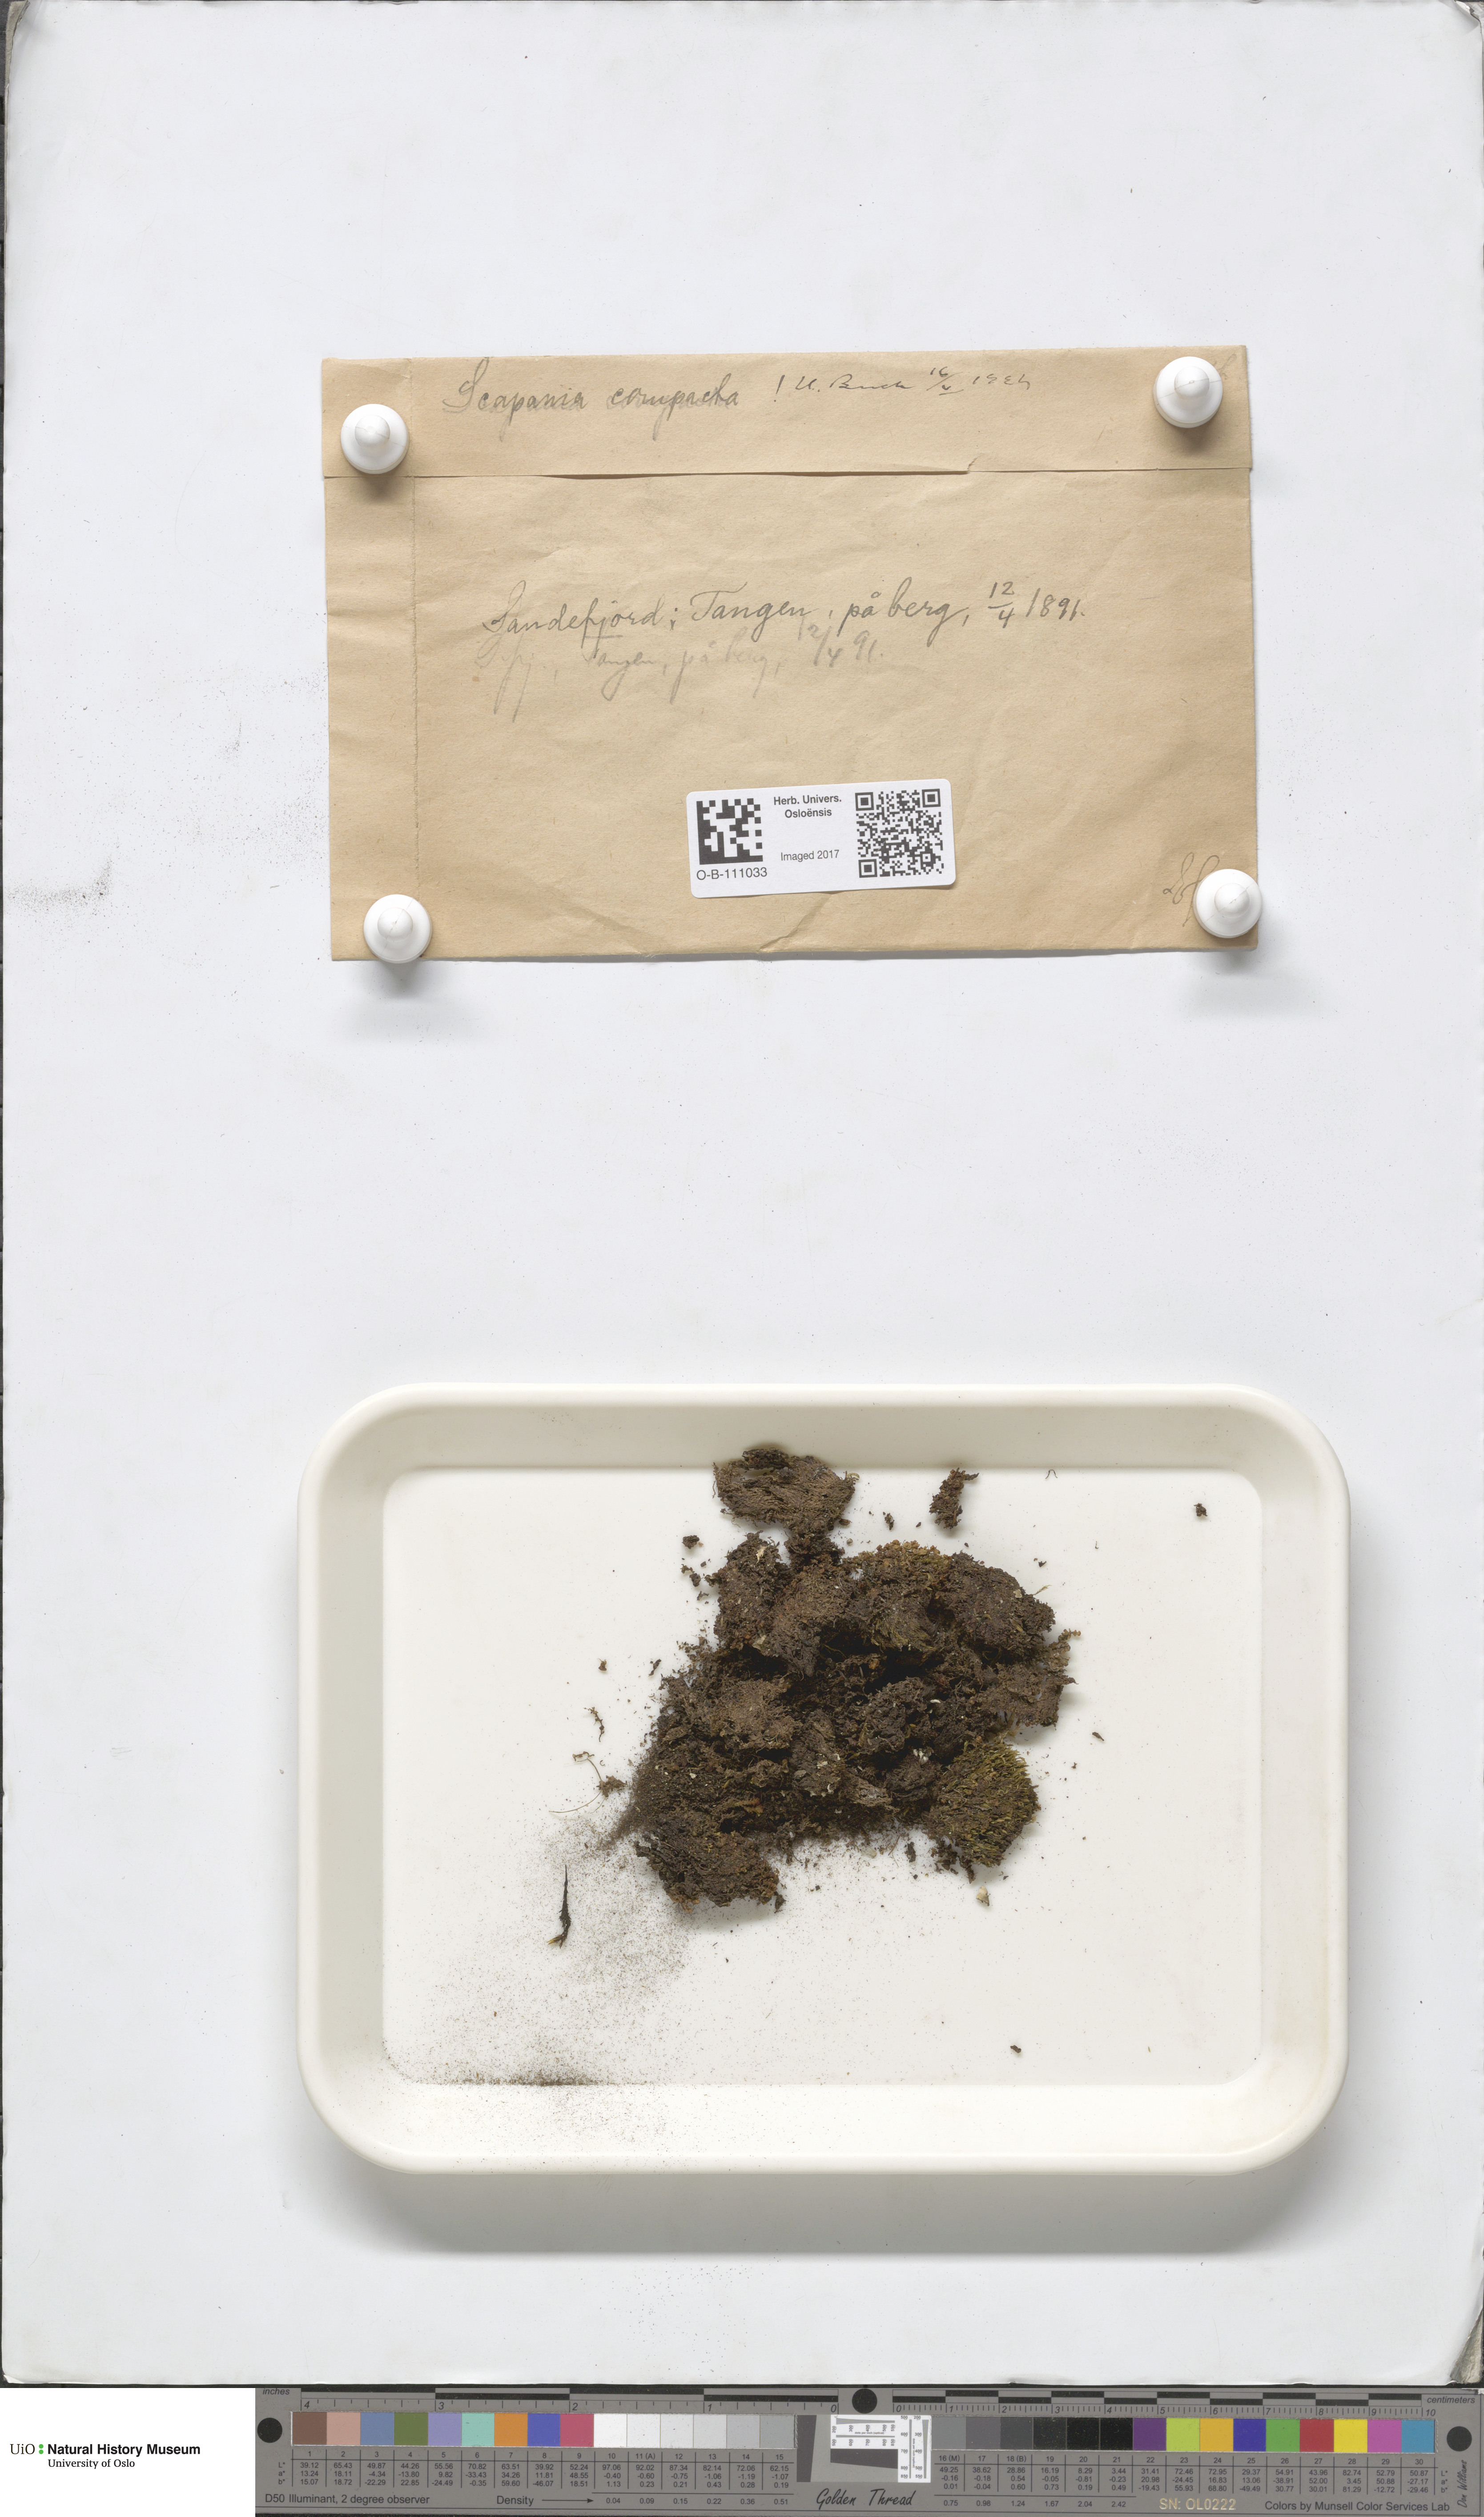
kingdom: Plantae
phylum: Marchantiophyta
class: Jungermanniopsida
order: Jungermanniales
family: Scapaniaceae
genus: Scapania
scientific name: Scapania compacta
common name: Thick-set earwort
